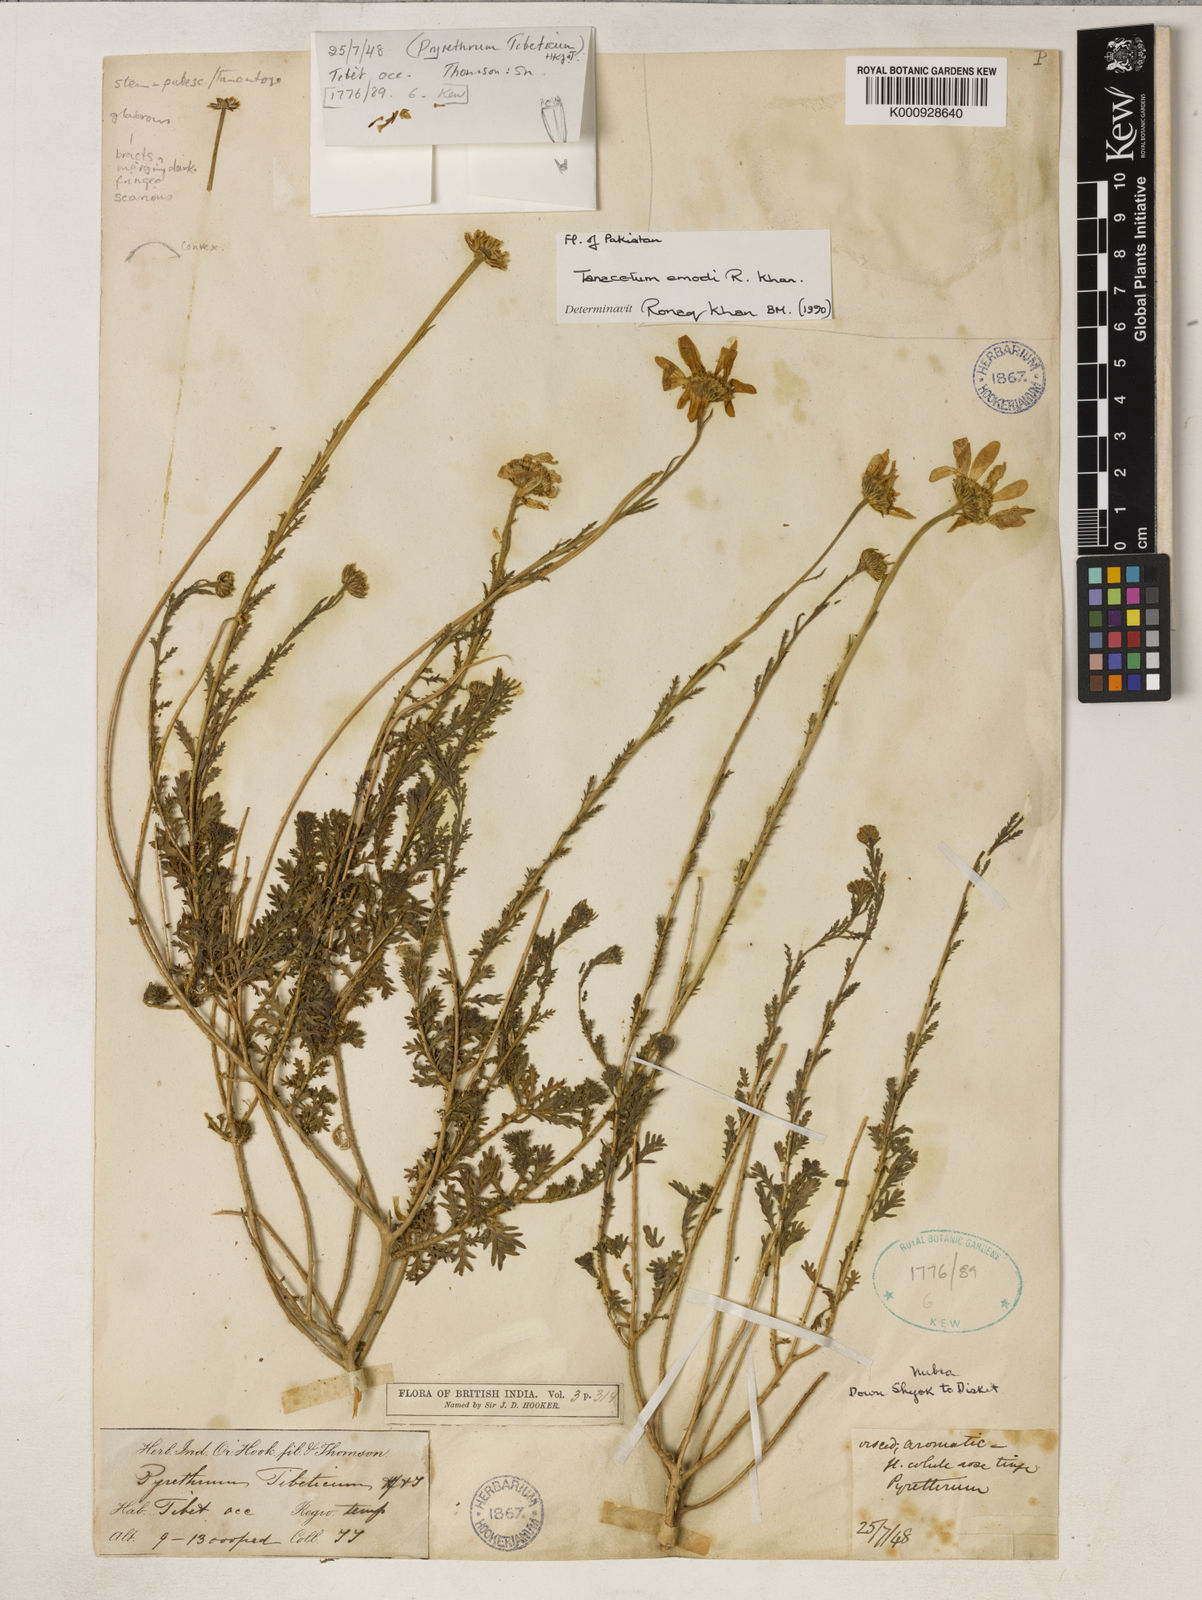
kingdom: Plantae
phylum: Tracheophyta
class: Magnoliopsida
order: Asterales
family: Asteraceae
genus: Tanacetum
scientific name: Tanacetum emodi
